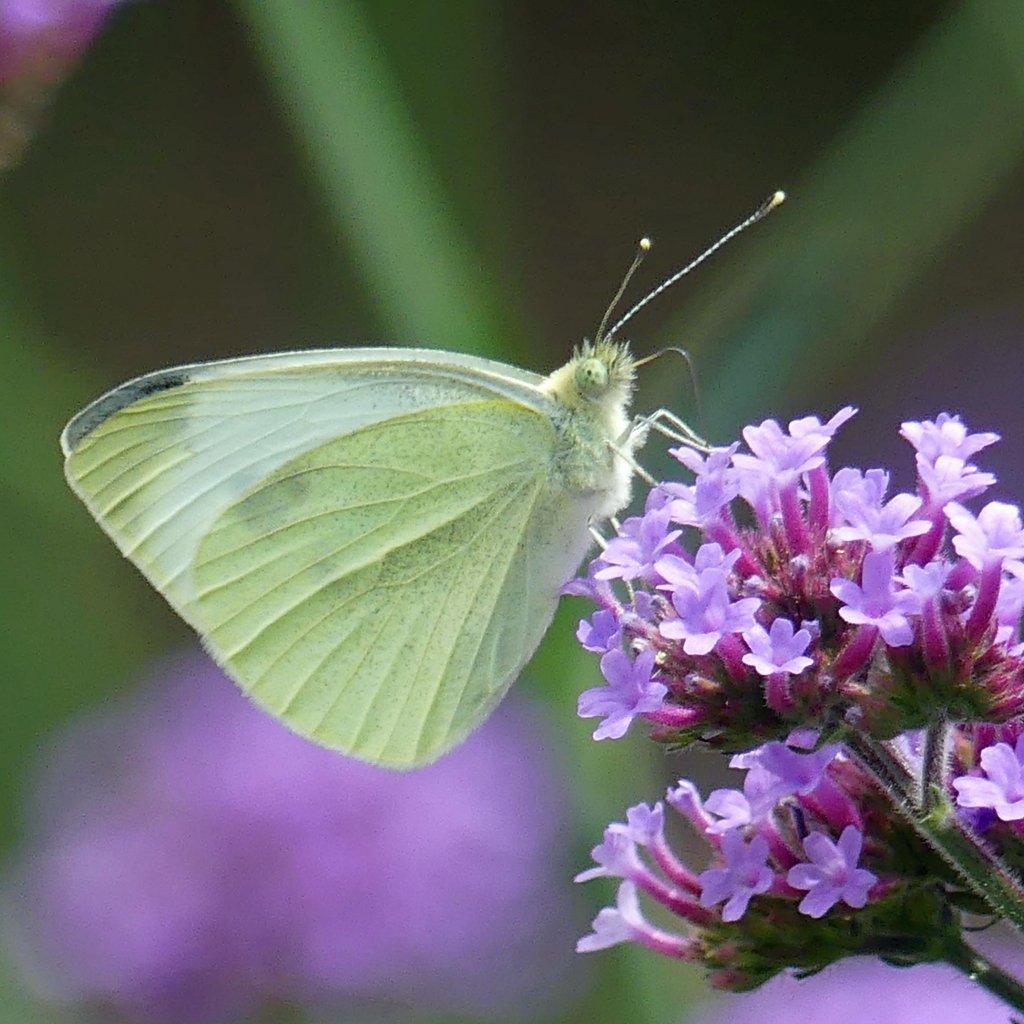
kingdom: Animalia
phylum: Arthropoda
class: Insecta
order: Lepidoptera
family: Pieridae
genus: Pieris
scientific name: Pieris rapae
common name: Cabbage White
